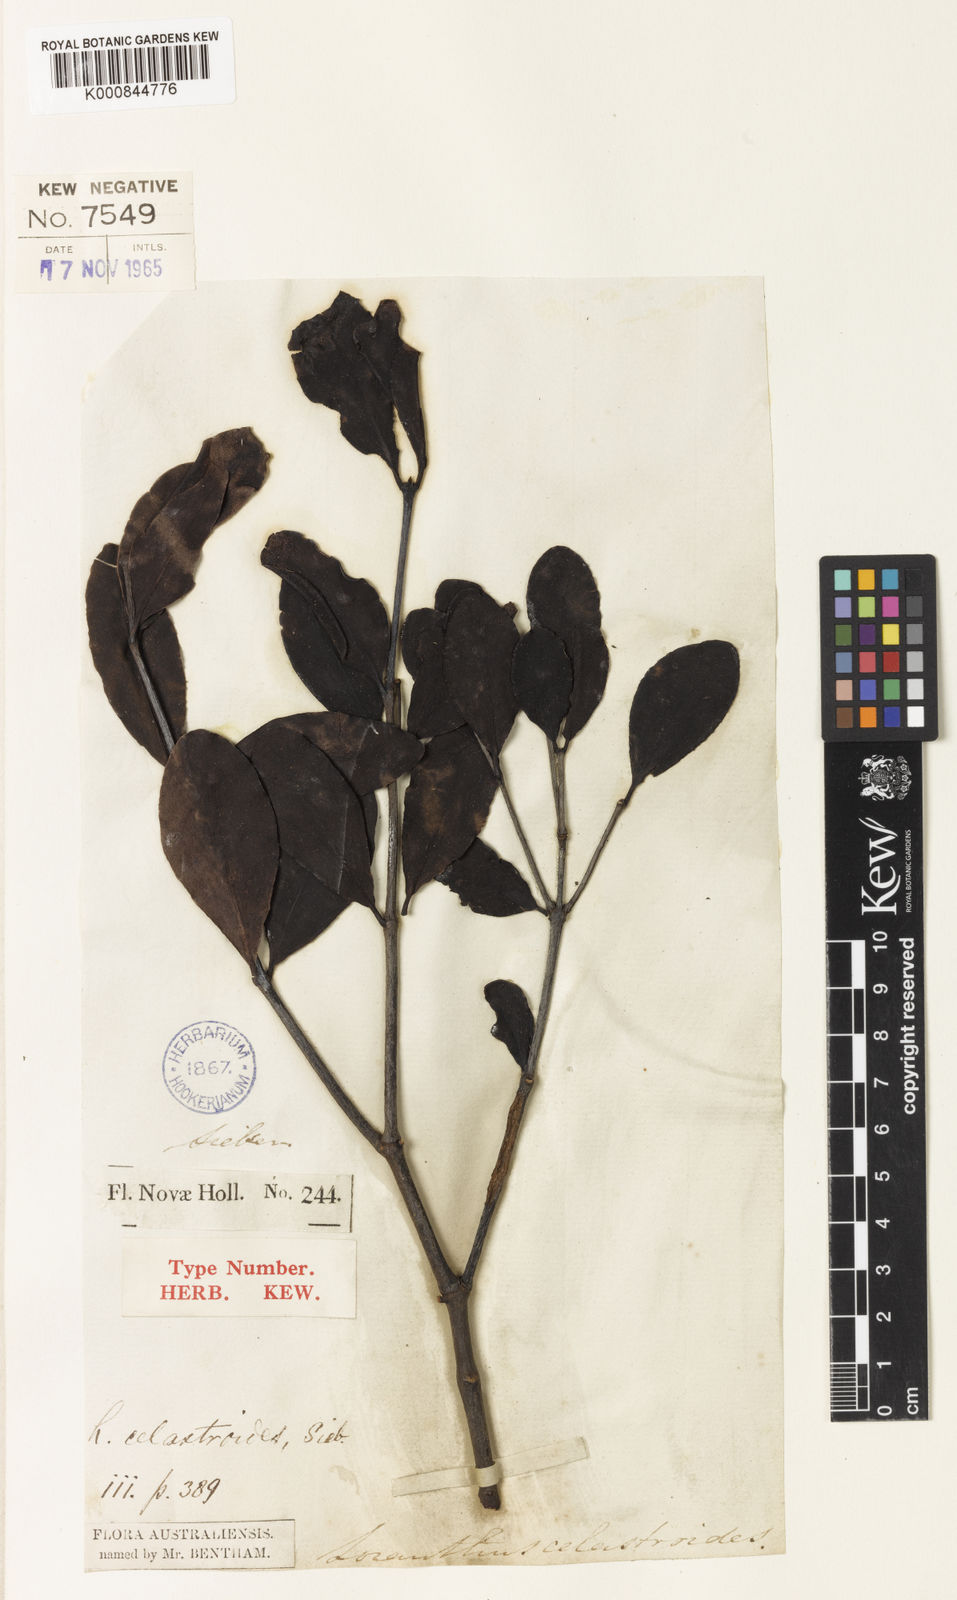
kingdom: Plantae
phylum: Tracheophyta
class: Magnoliopsida
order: Santalales
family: Loranthaceae
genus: Muellerina
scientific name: Muellerina celastroides
